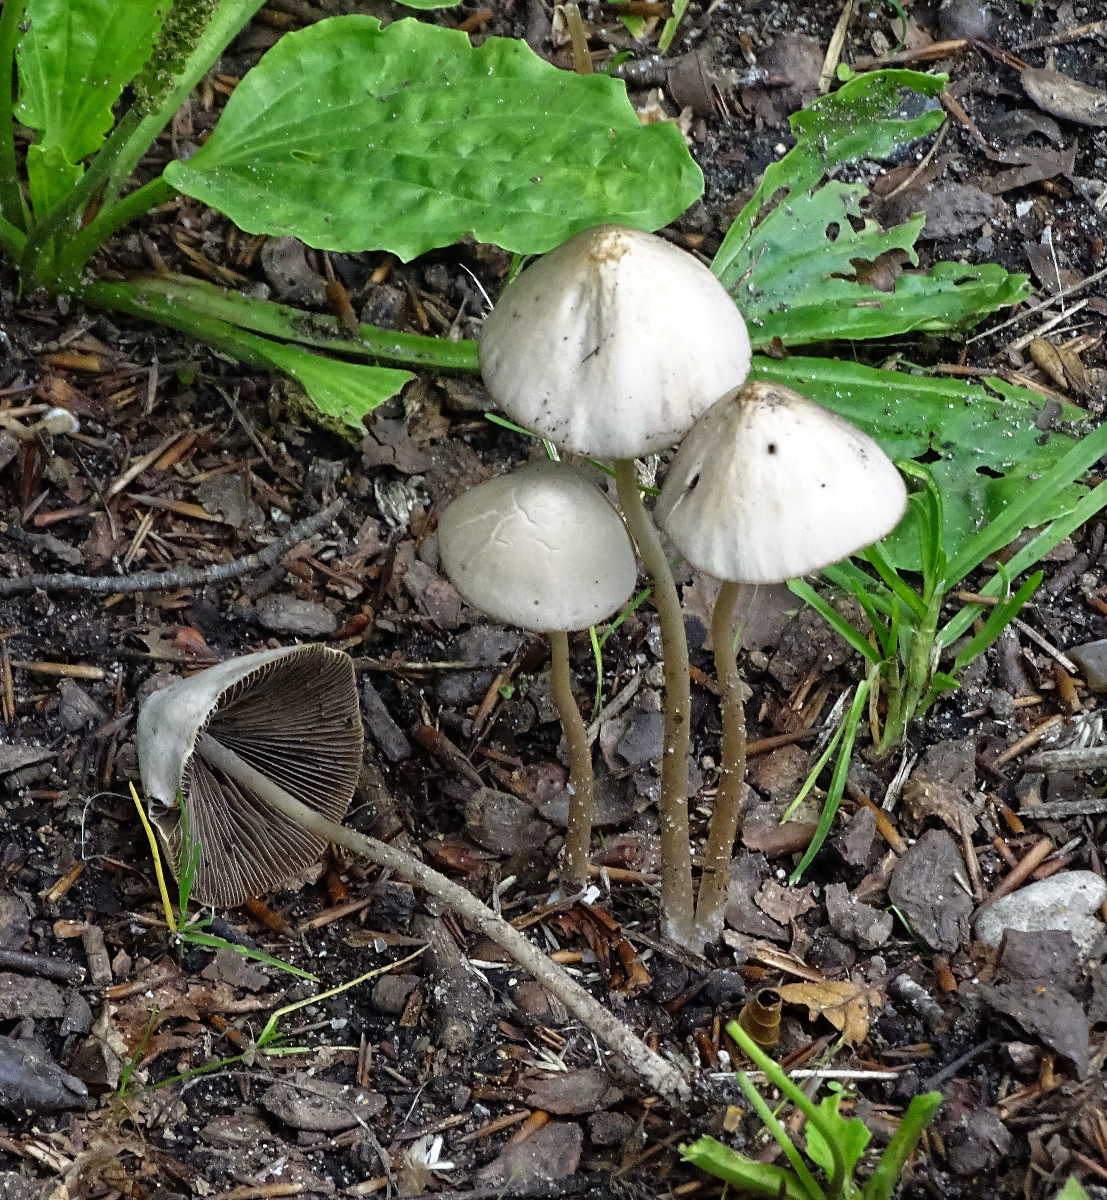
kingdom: Fungi
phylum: Basidiomycota
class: Agaricomycetes
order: Agaricales
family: Psathyrellaceae
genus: Parasola
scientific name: Parasola conopilea
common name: kegle-hjulhat
